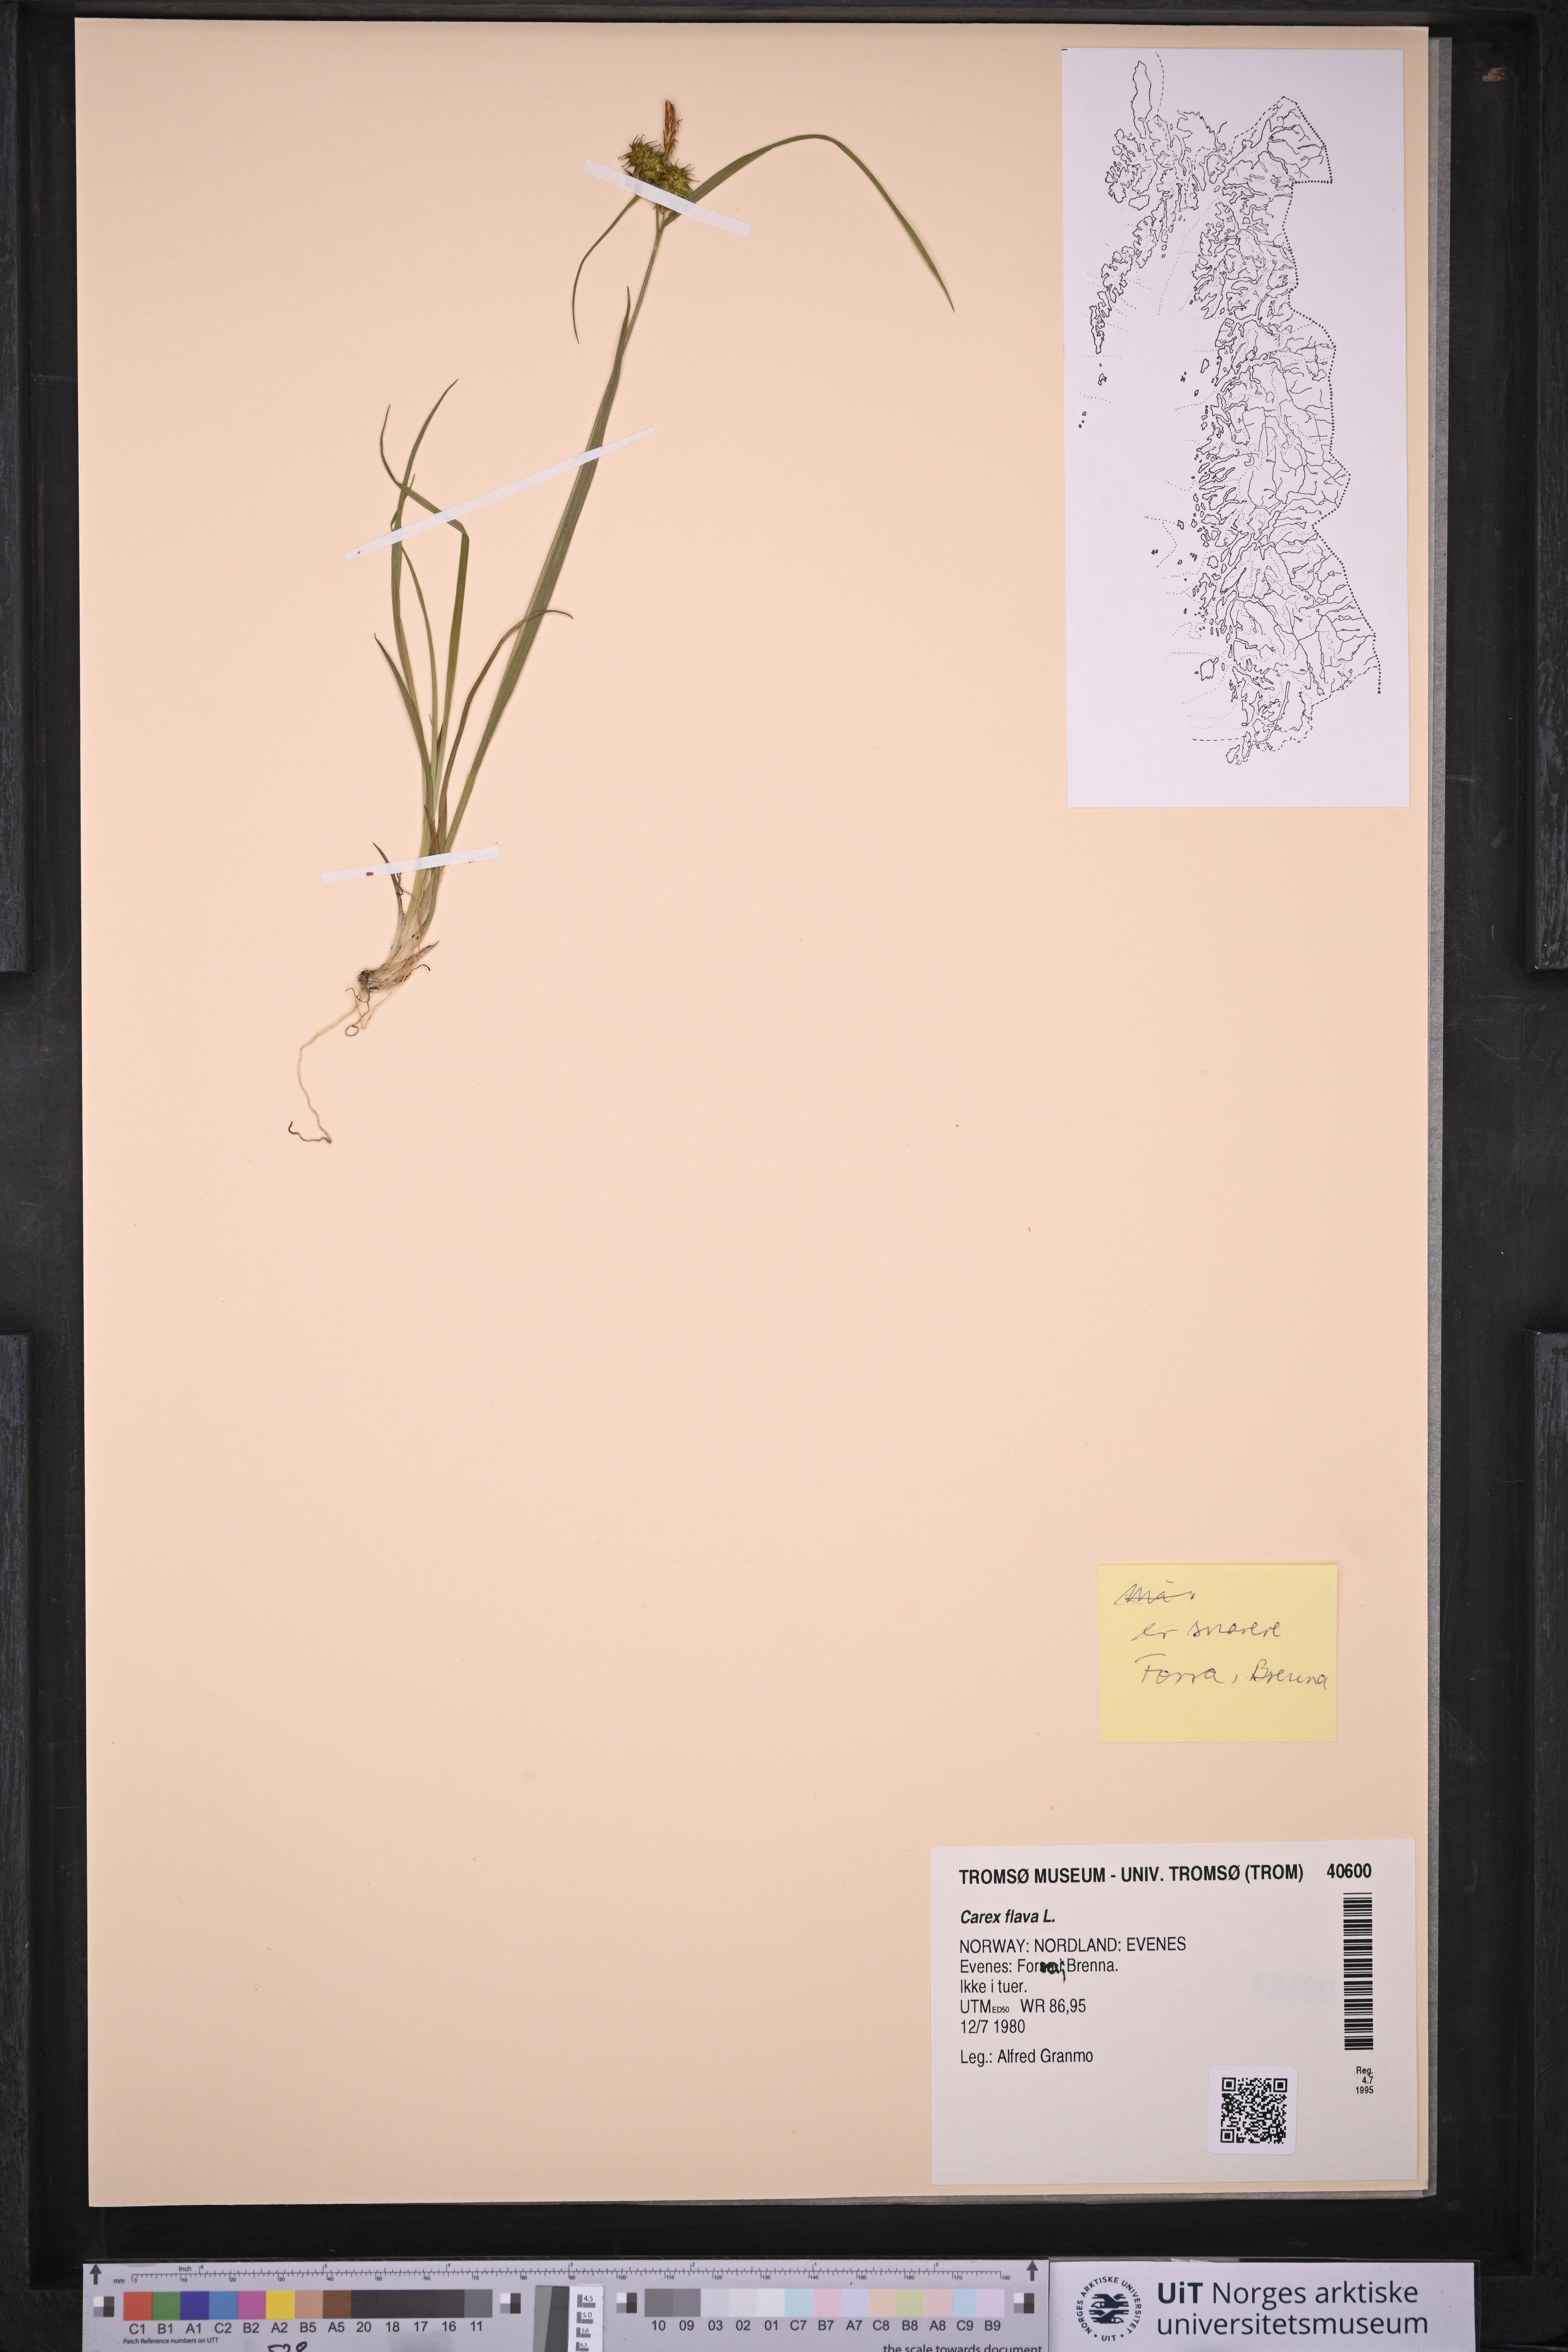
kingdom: Plantae
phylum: Tracheophyta
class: Liliopsida
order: Poales
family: Cyperaceae
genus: Carex
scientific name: Carex flava
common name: Large yellow-sedge
